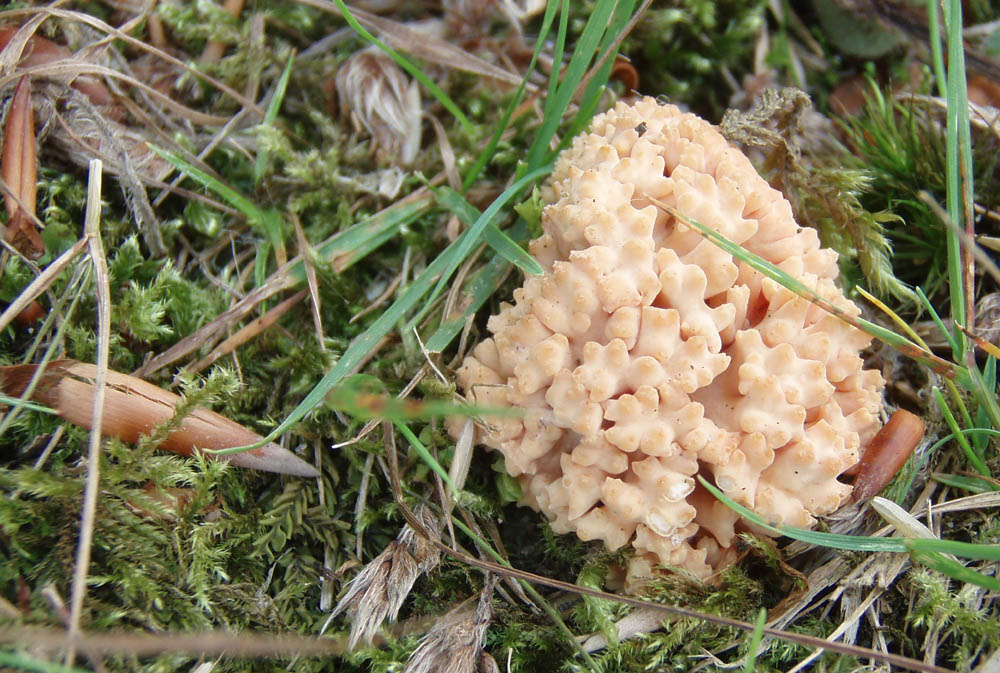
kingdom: Fungi
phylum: Basidiomycota
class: Agaricomycetes
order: Gomphales
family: Gomphaceae
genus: Ramaria
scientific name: Ramaria
